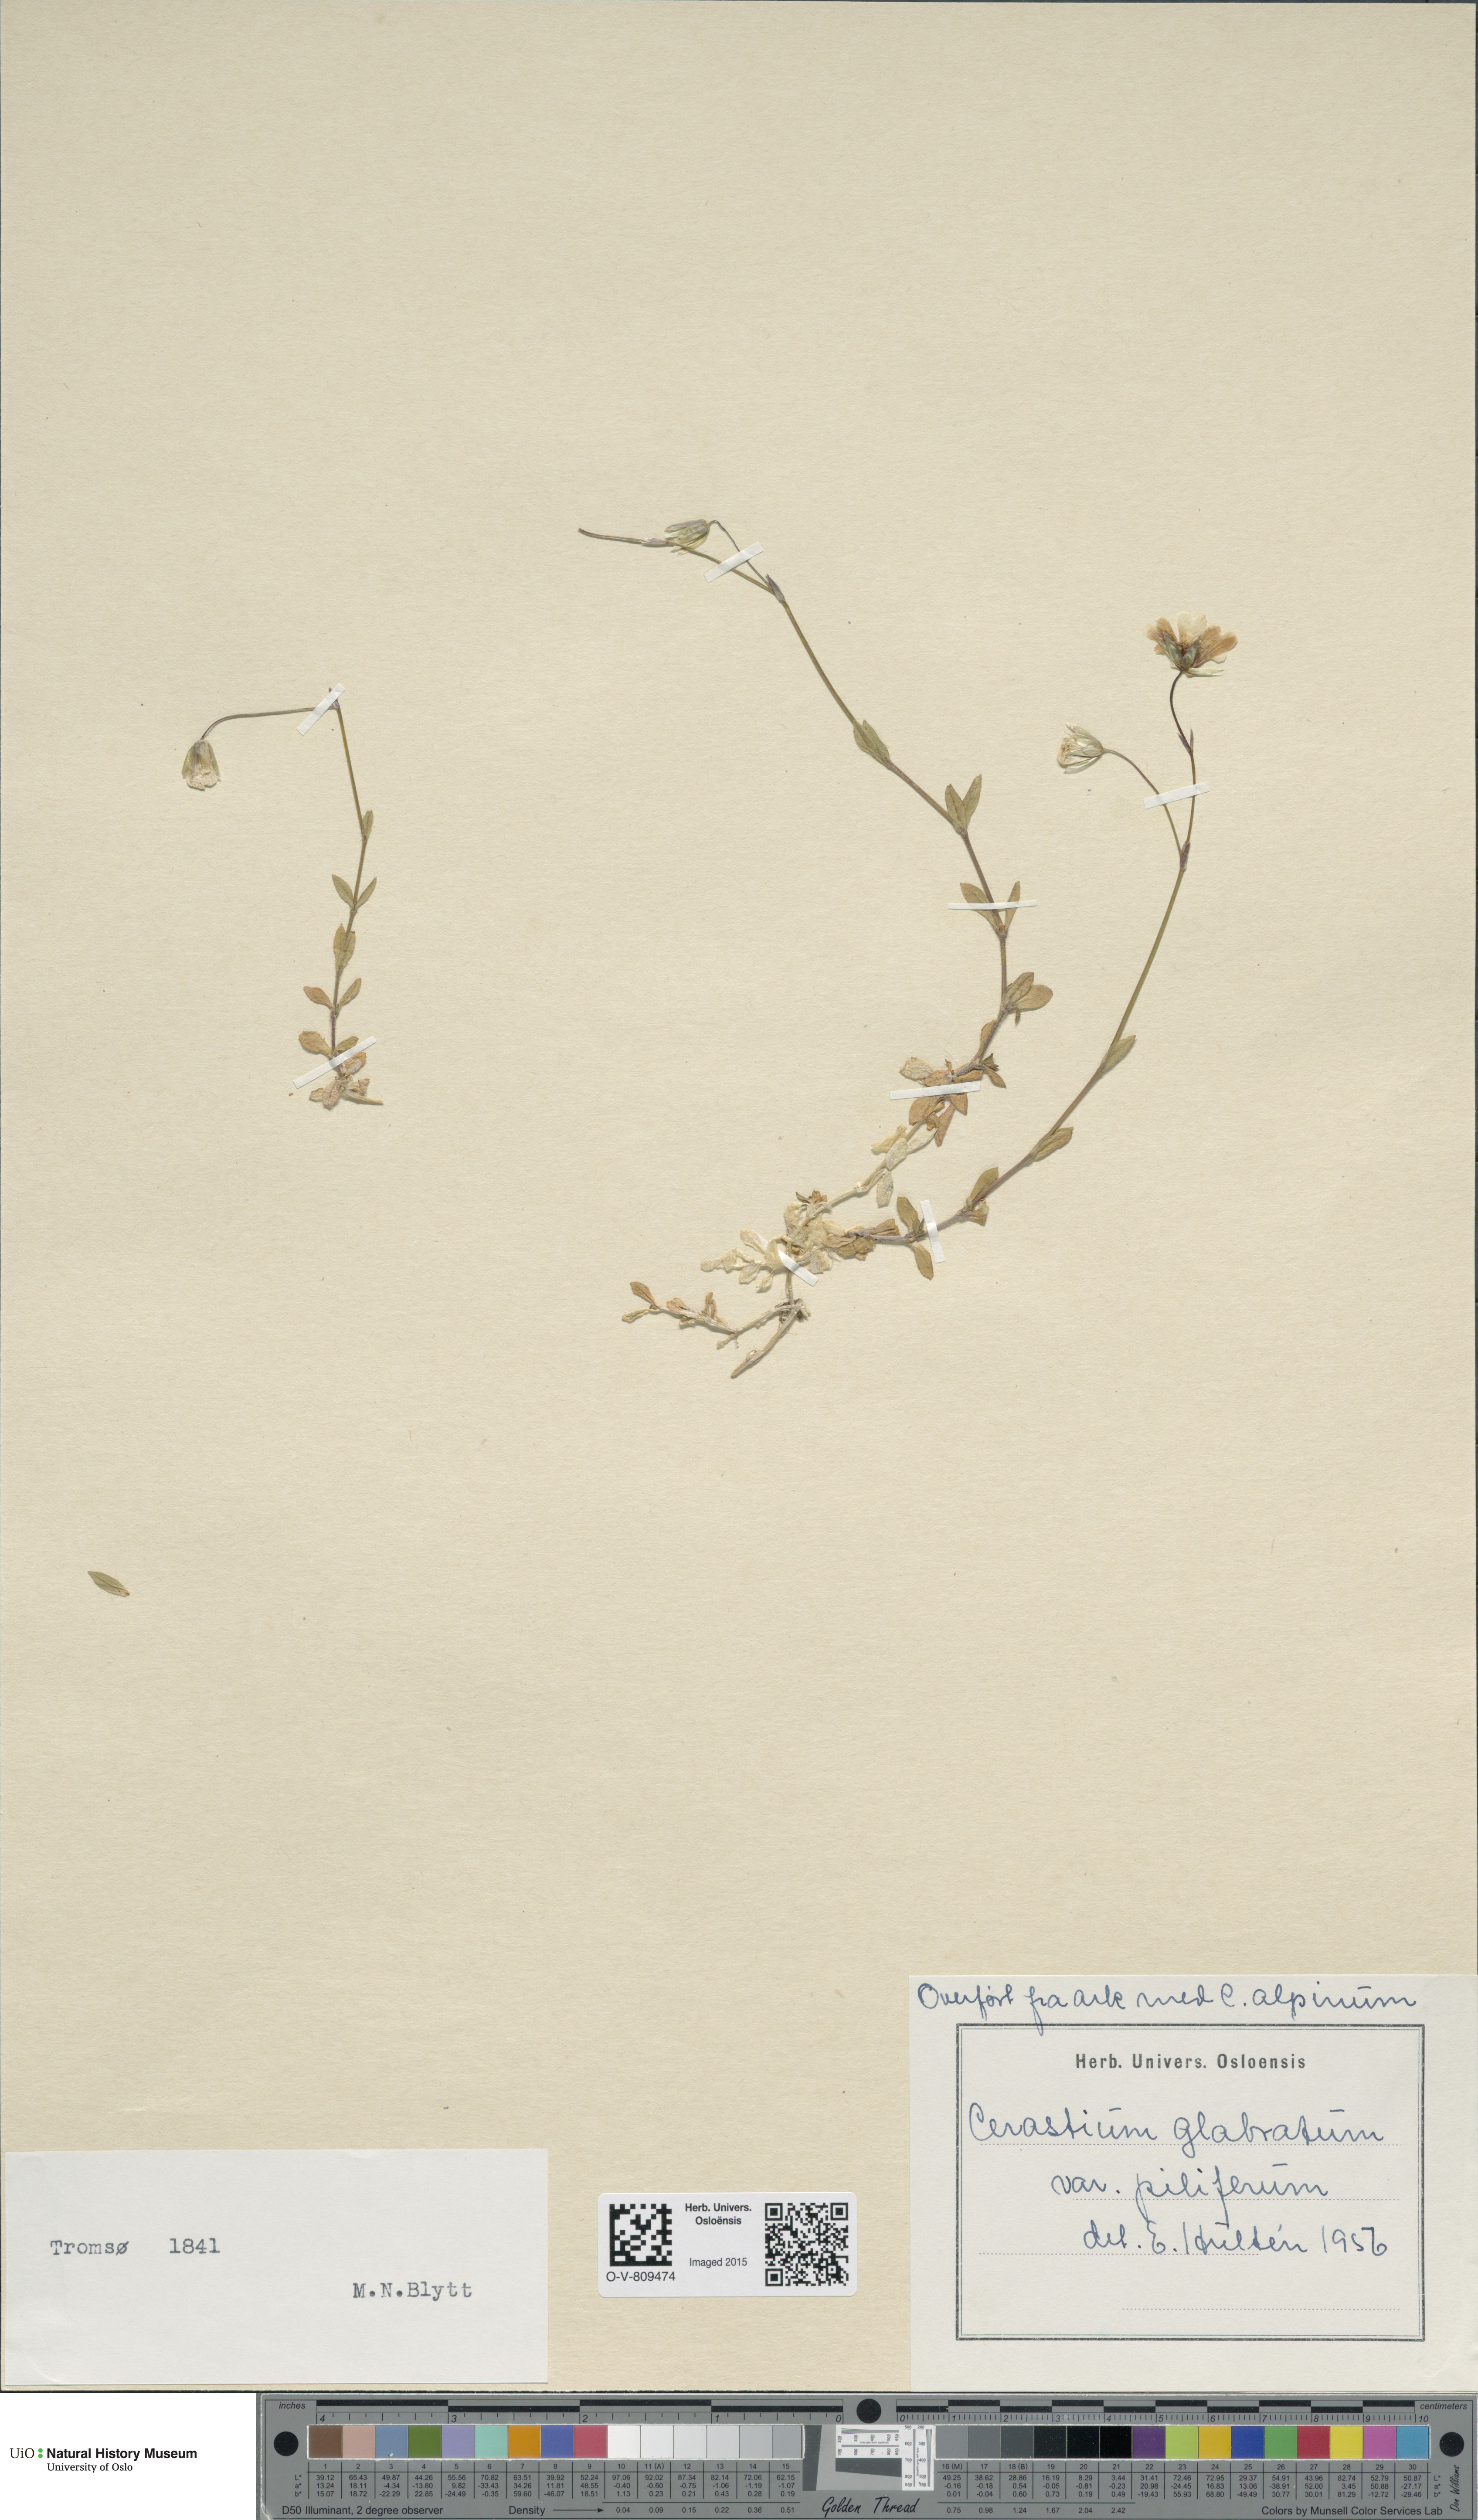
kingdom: Plantae
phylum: Tracheophyta
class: Magnoliopsida
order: Caryophyllales
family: Caryophyllaceae
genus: Cerastium
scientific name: Cerastium alpinum
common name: Alpine mouse-ear
